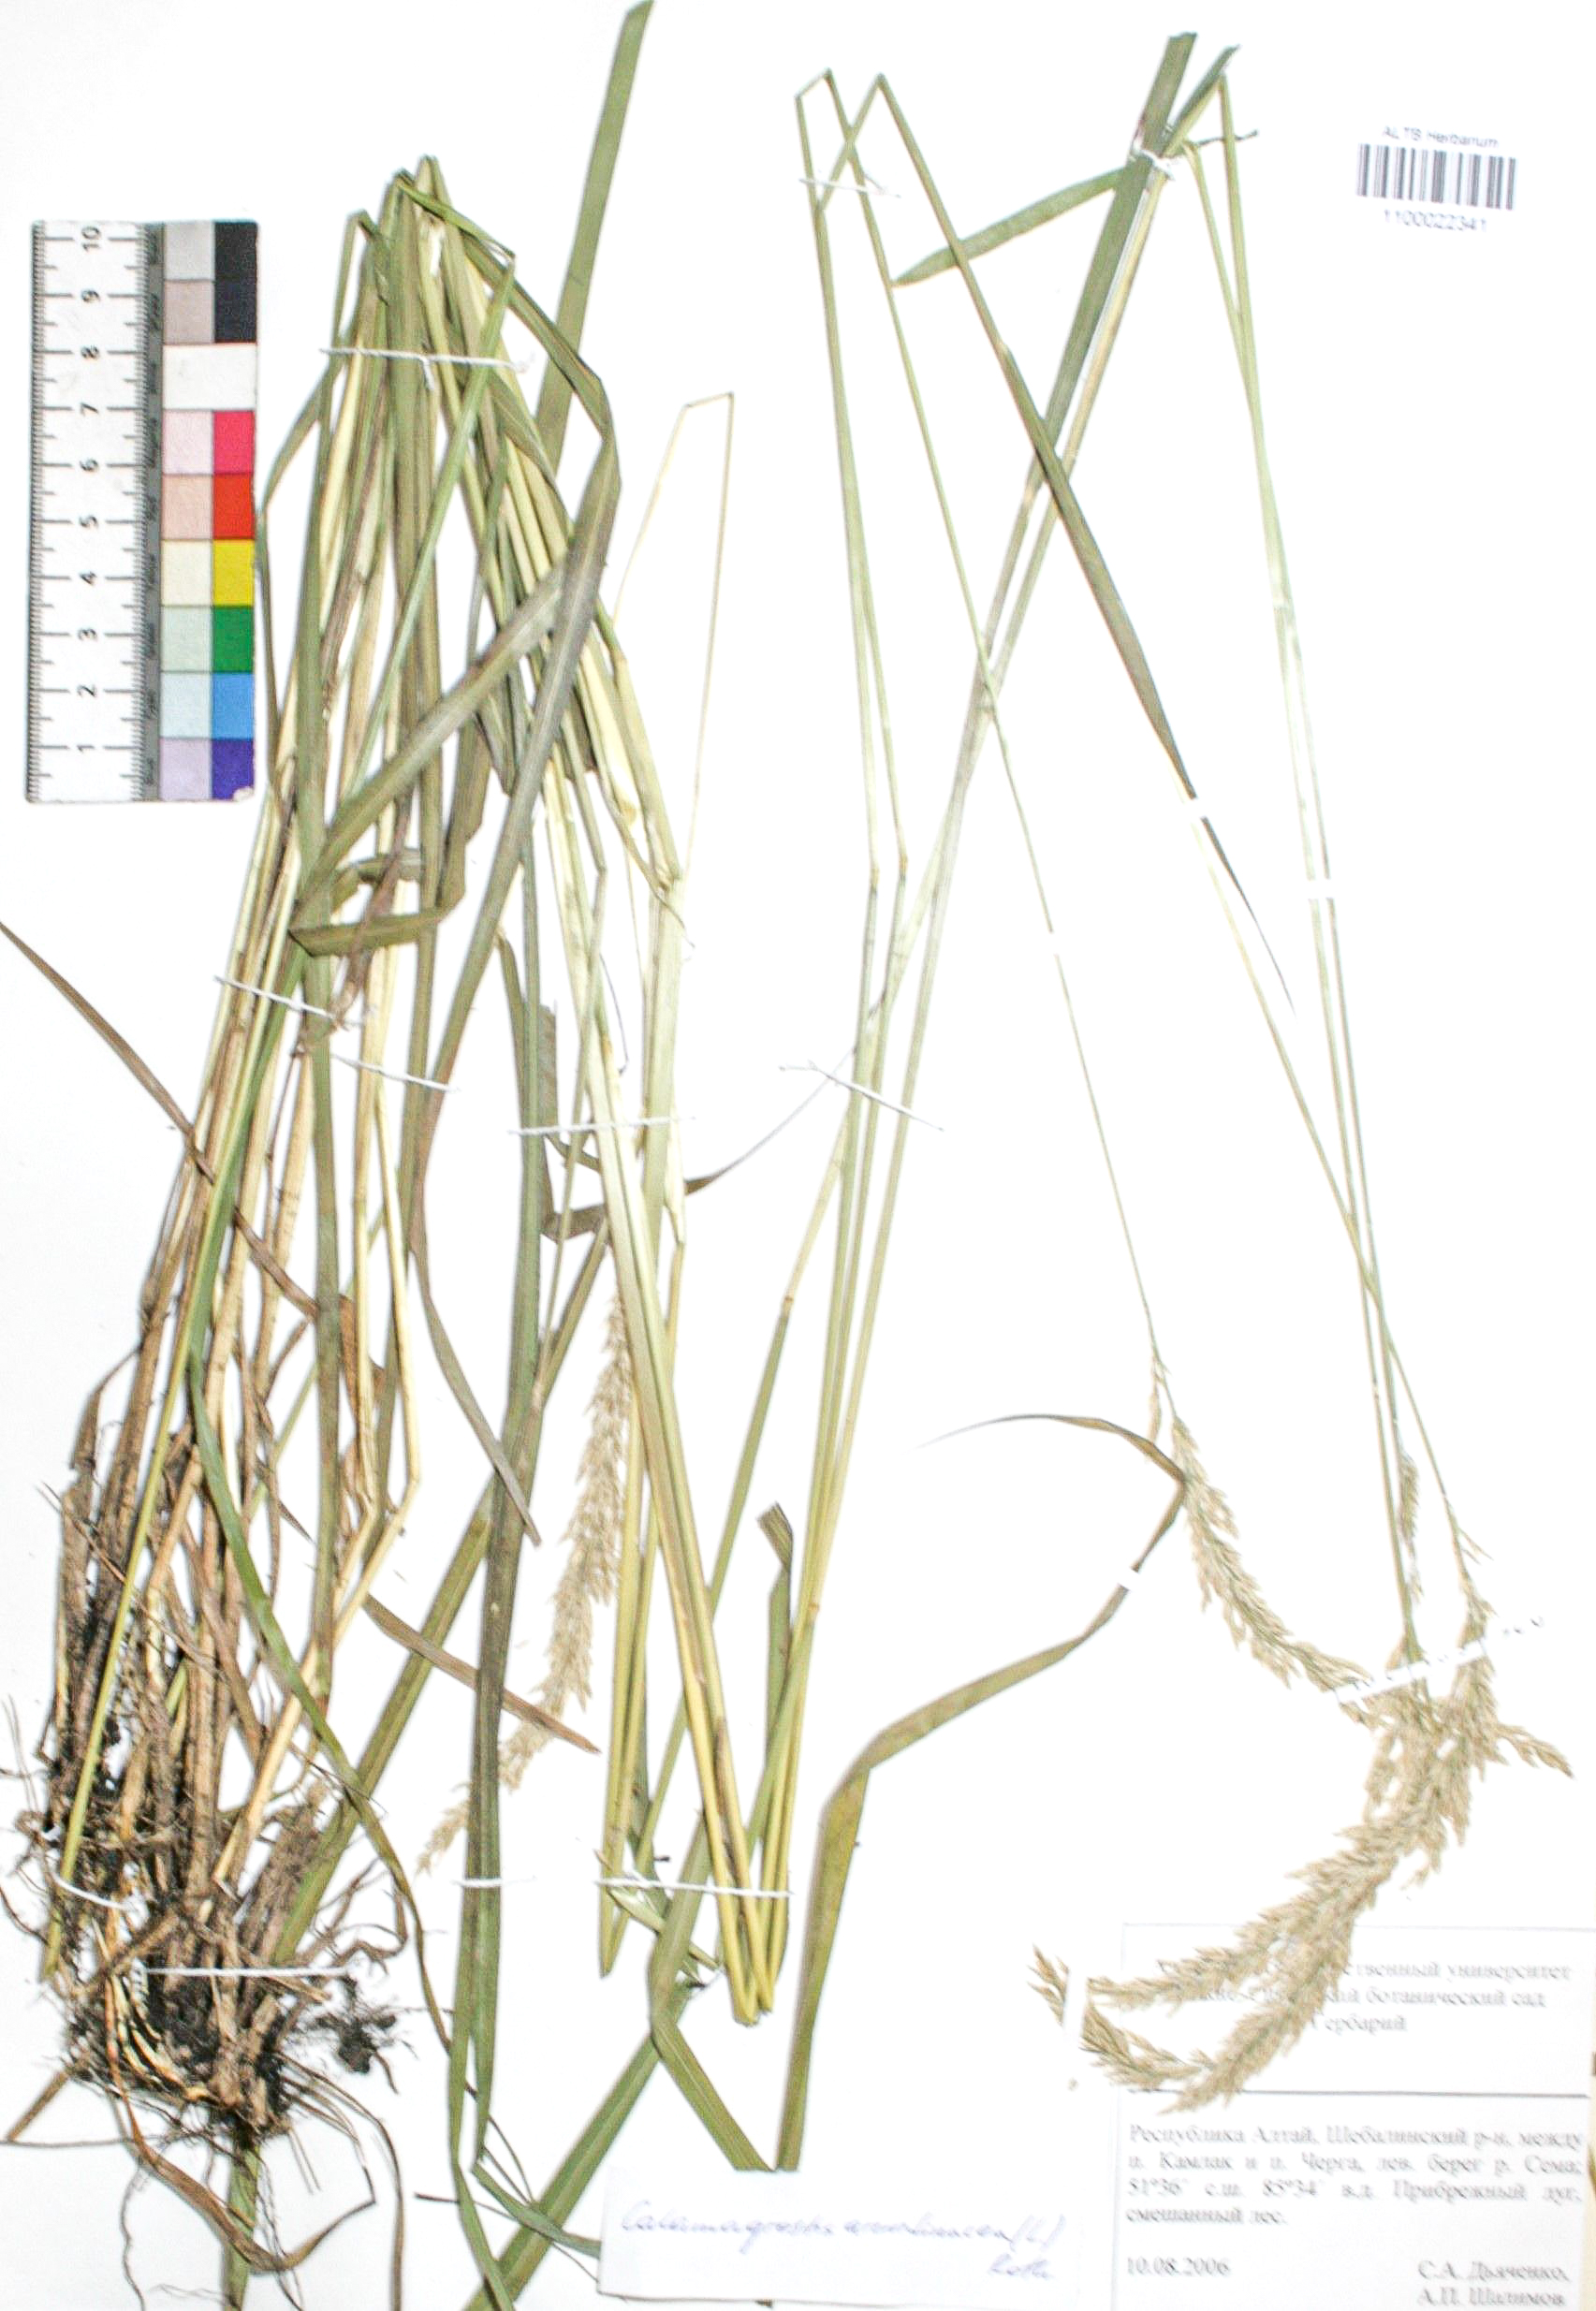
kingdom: Plantae
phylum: Tracheophyta
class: Liliopsida
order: Poales
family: Poaceae
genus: Calamagrostis
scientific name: Calamagrostis arundinacea
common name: Metskastik
